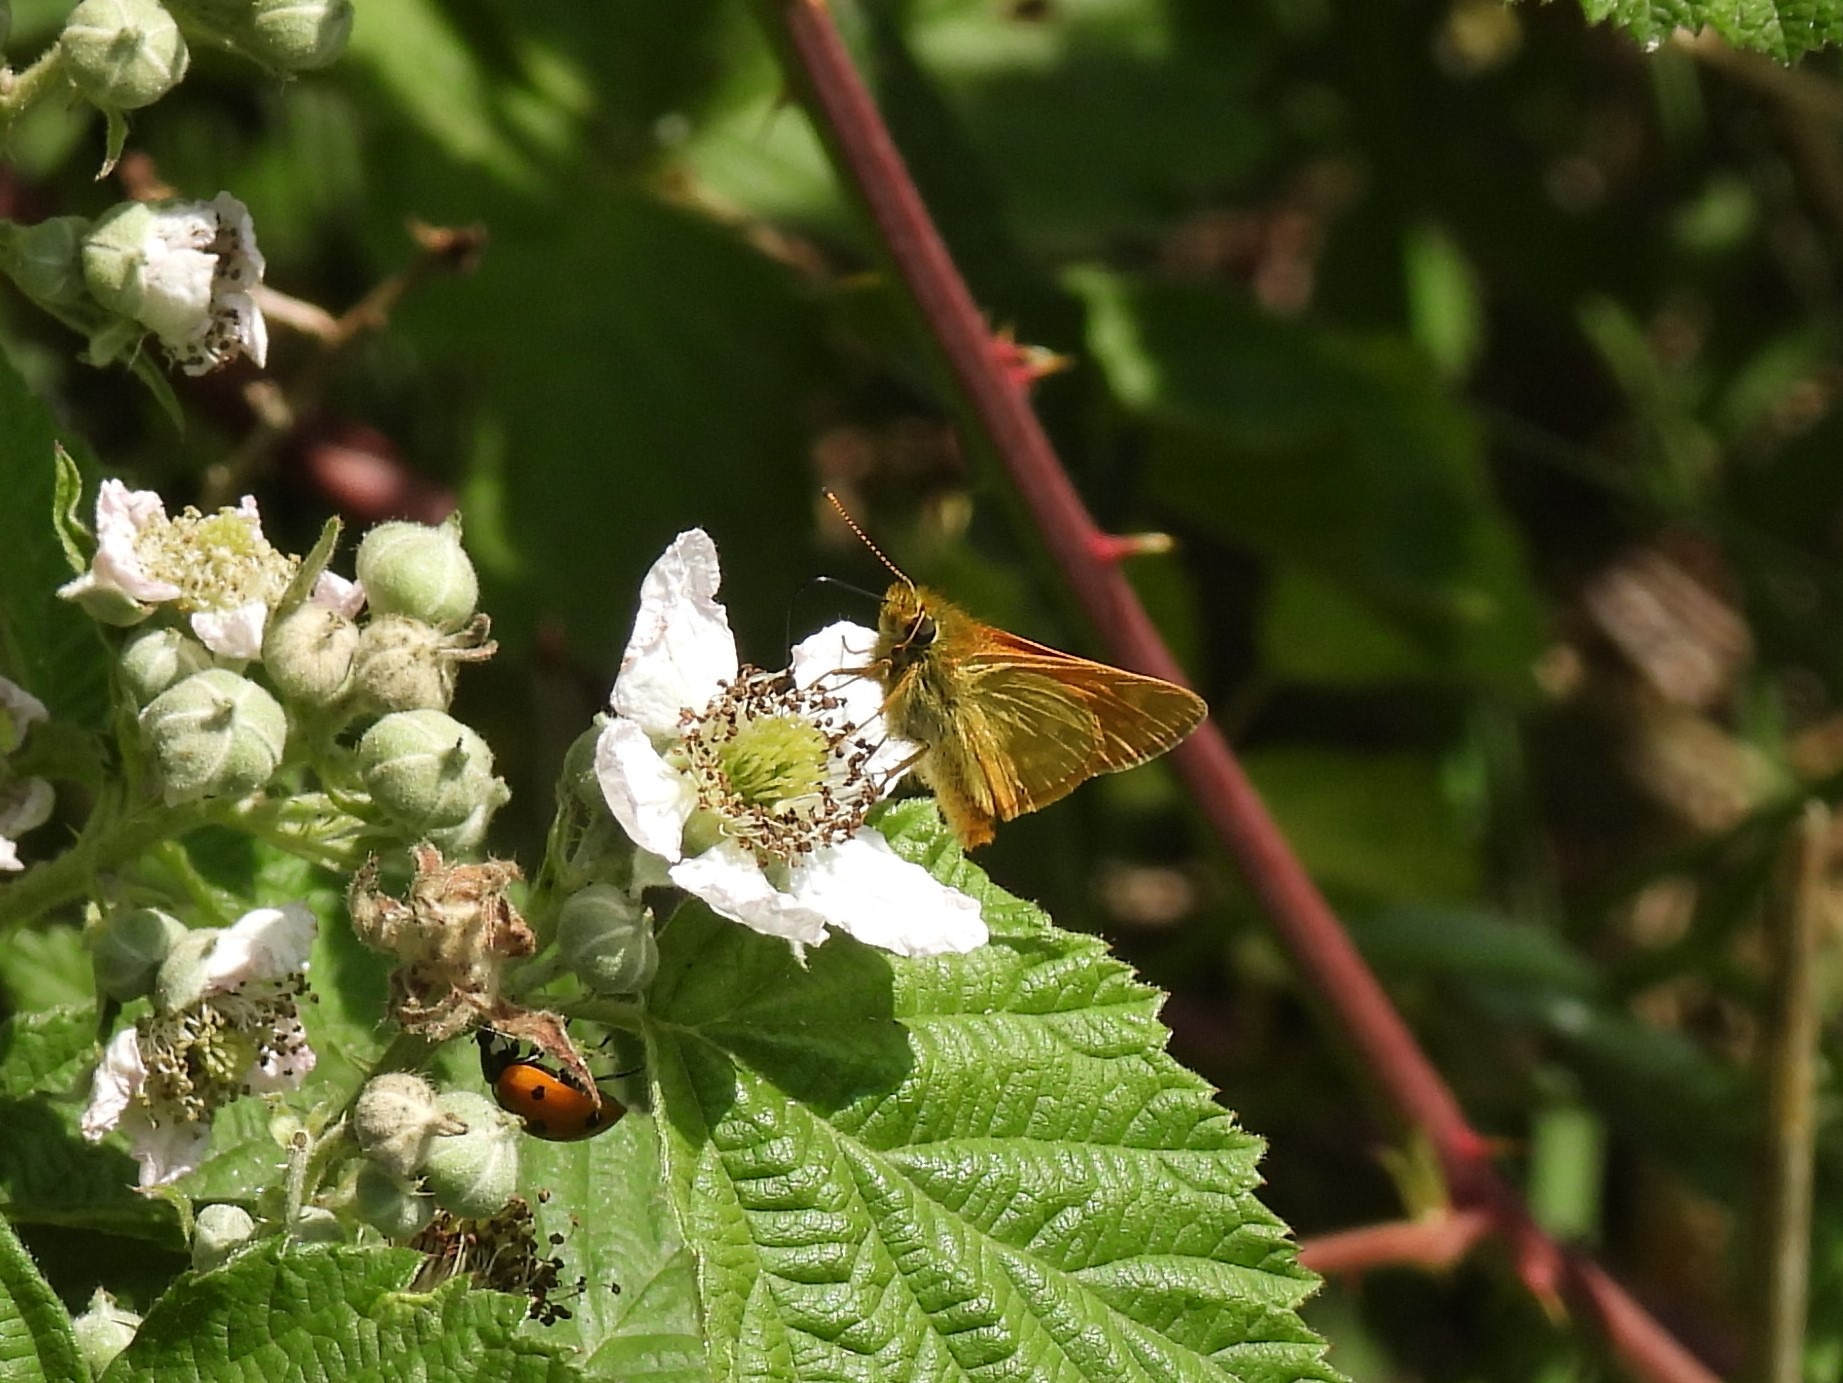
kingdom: Animalia
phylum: Arthropoda
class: Insecta
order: Lepidoptera
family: Hesperiidae
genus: Ochlodes
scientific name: Ochlodes venata
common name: Stor bredpande
